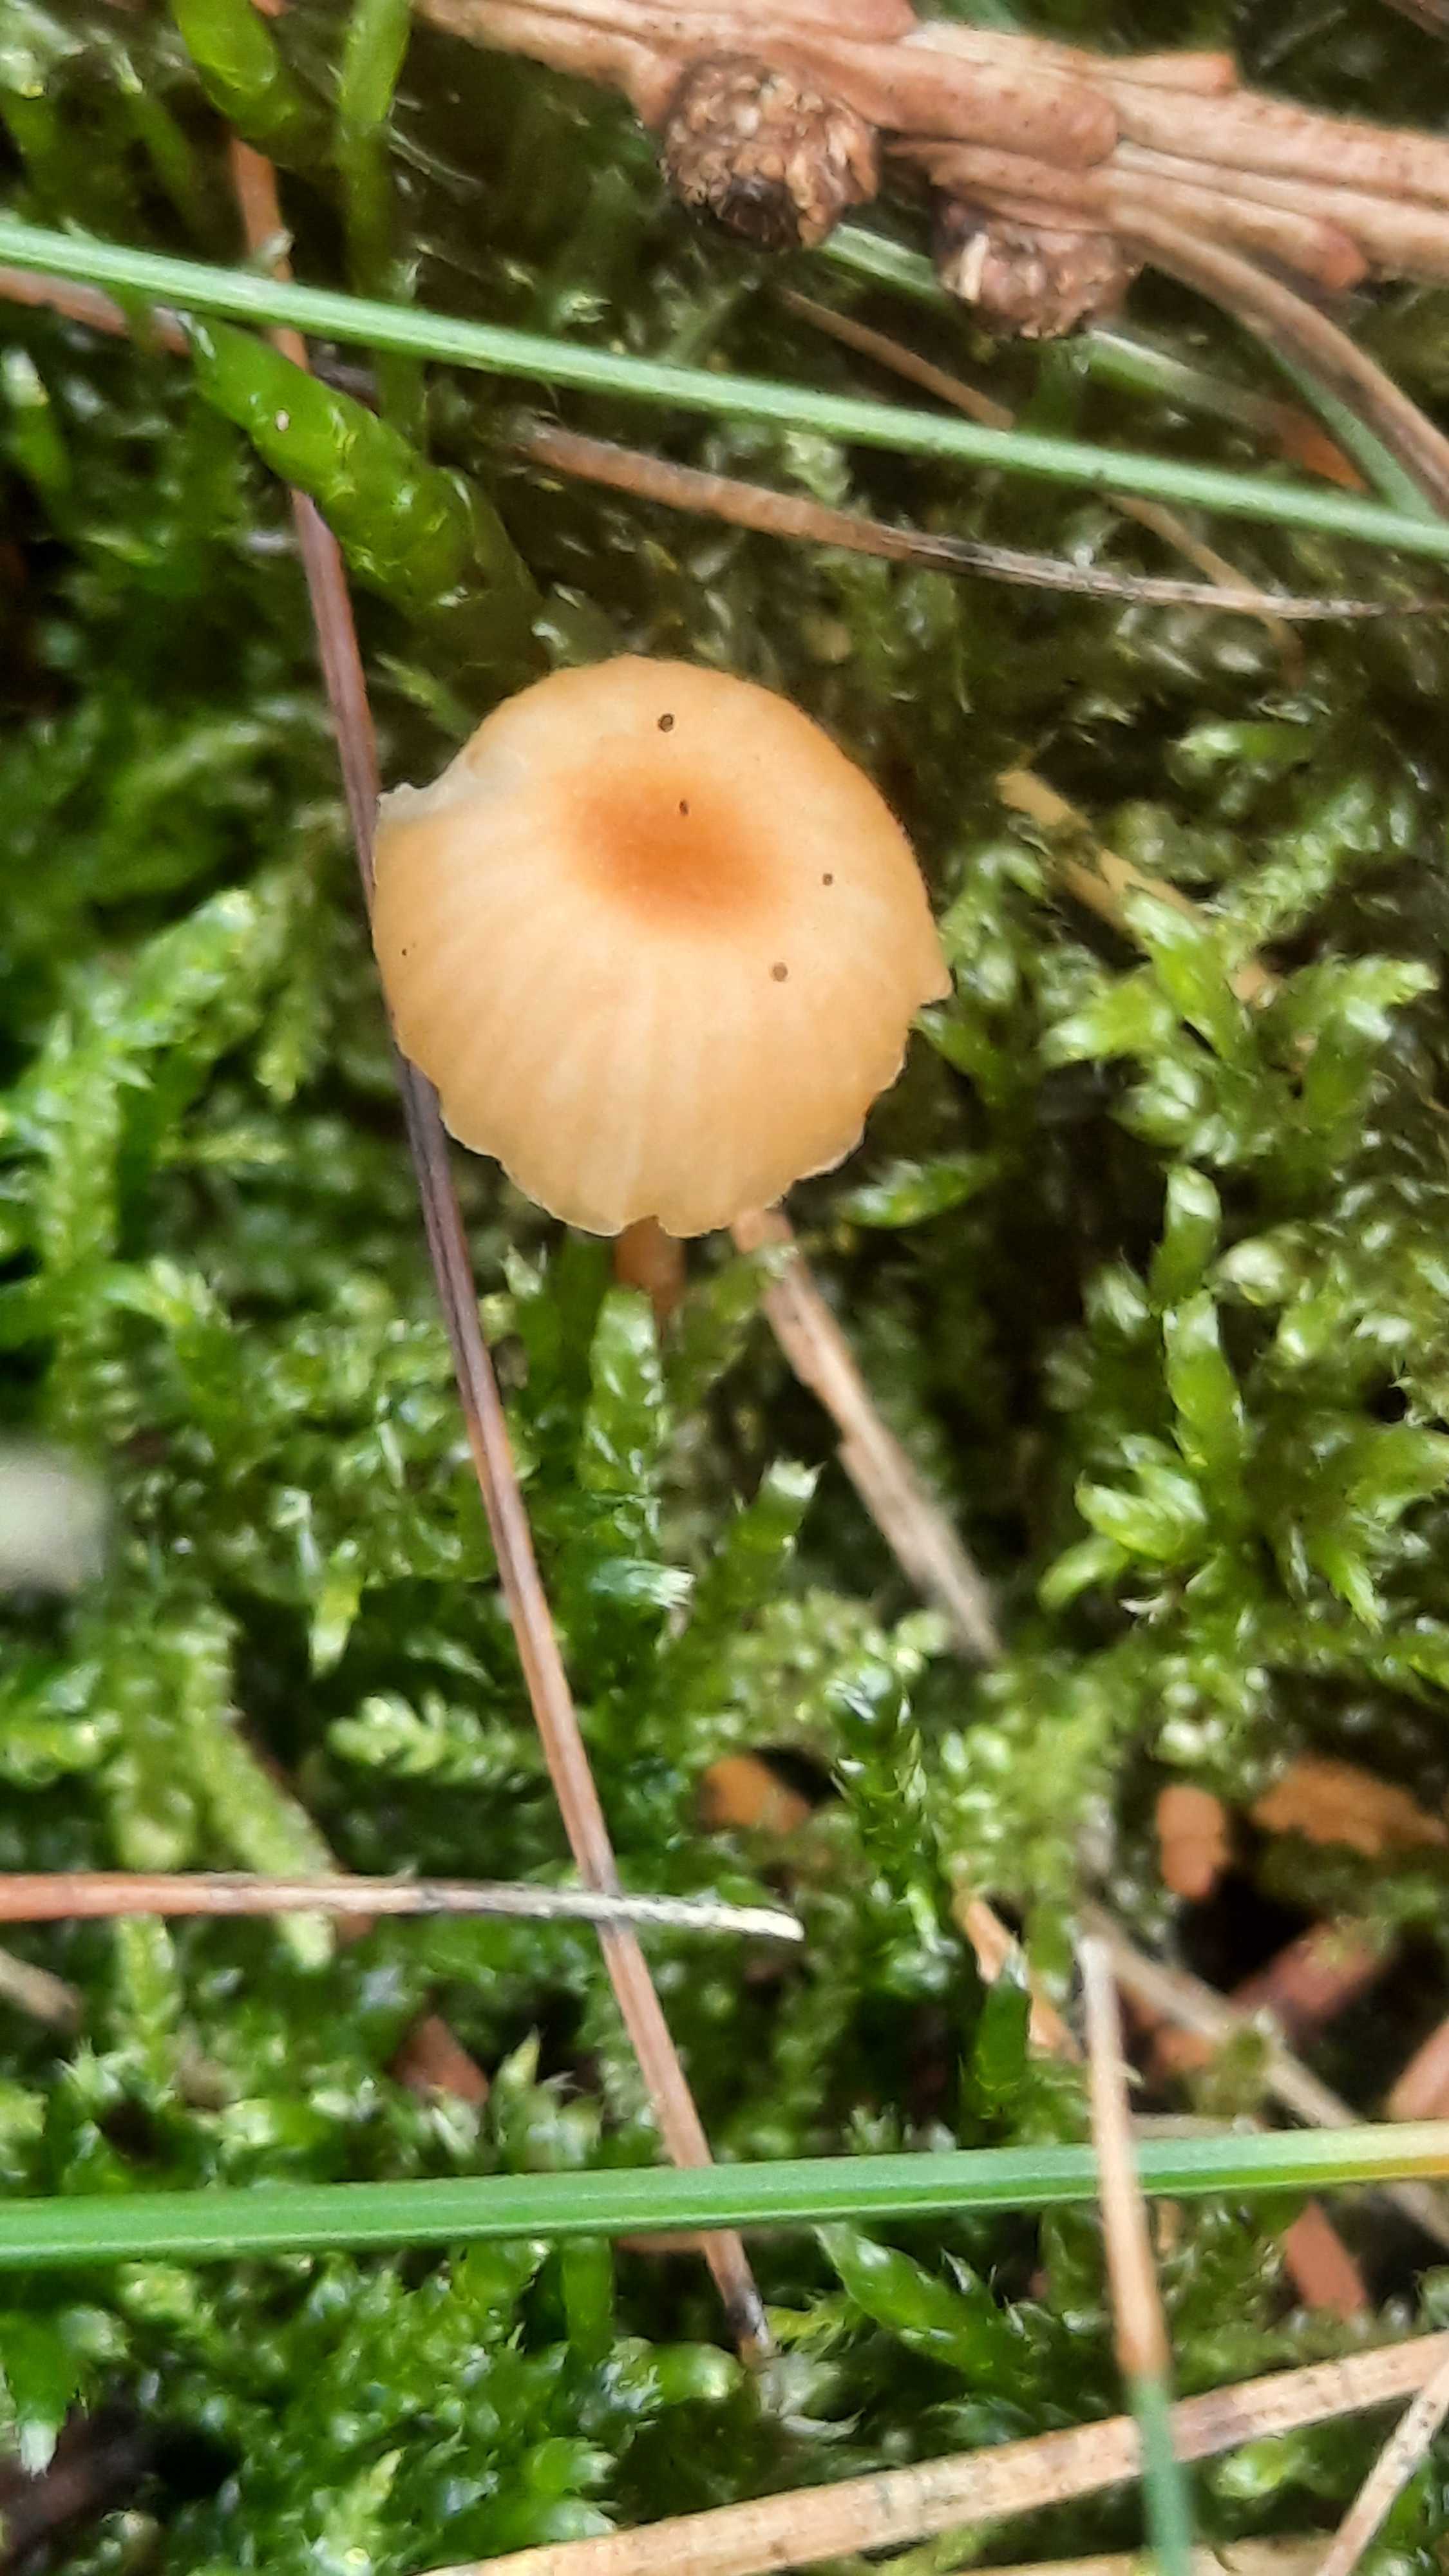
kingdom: Fungi
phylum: Basidiomycota
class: Agaricomycetes
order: Hymenochaetales
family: Rickenellaceae
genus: Rickenella
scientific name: Rickenella fibula
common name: orange mosnavlehat
